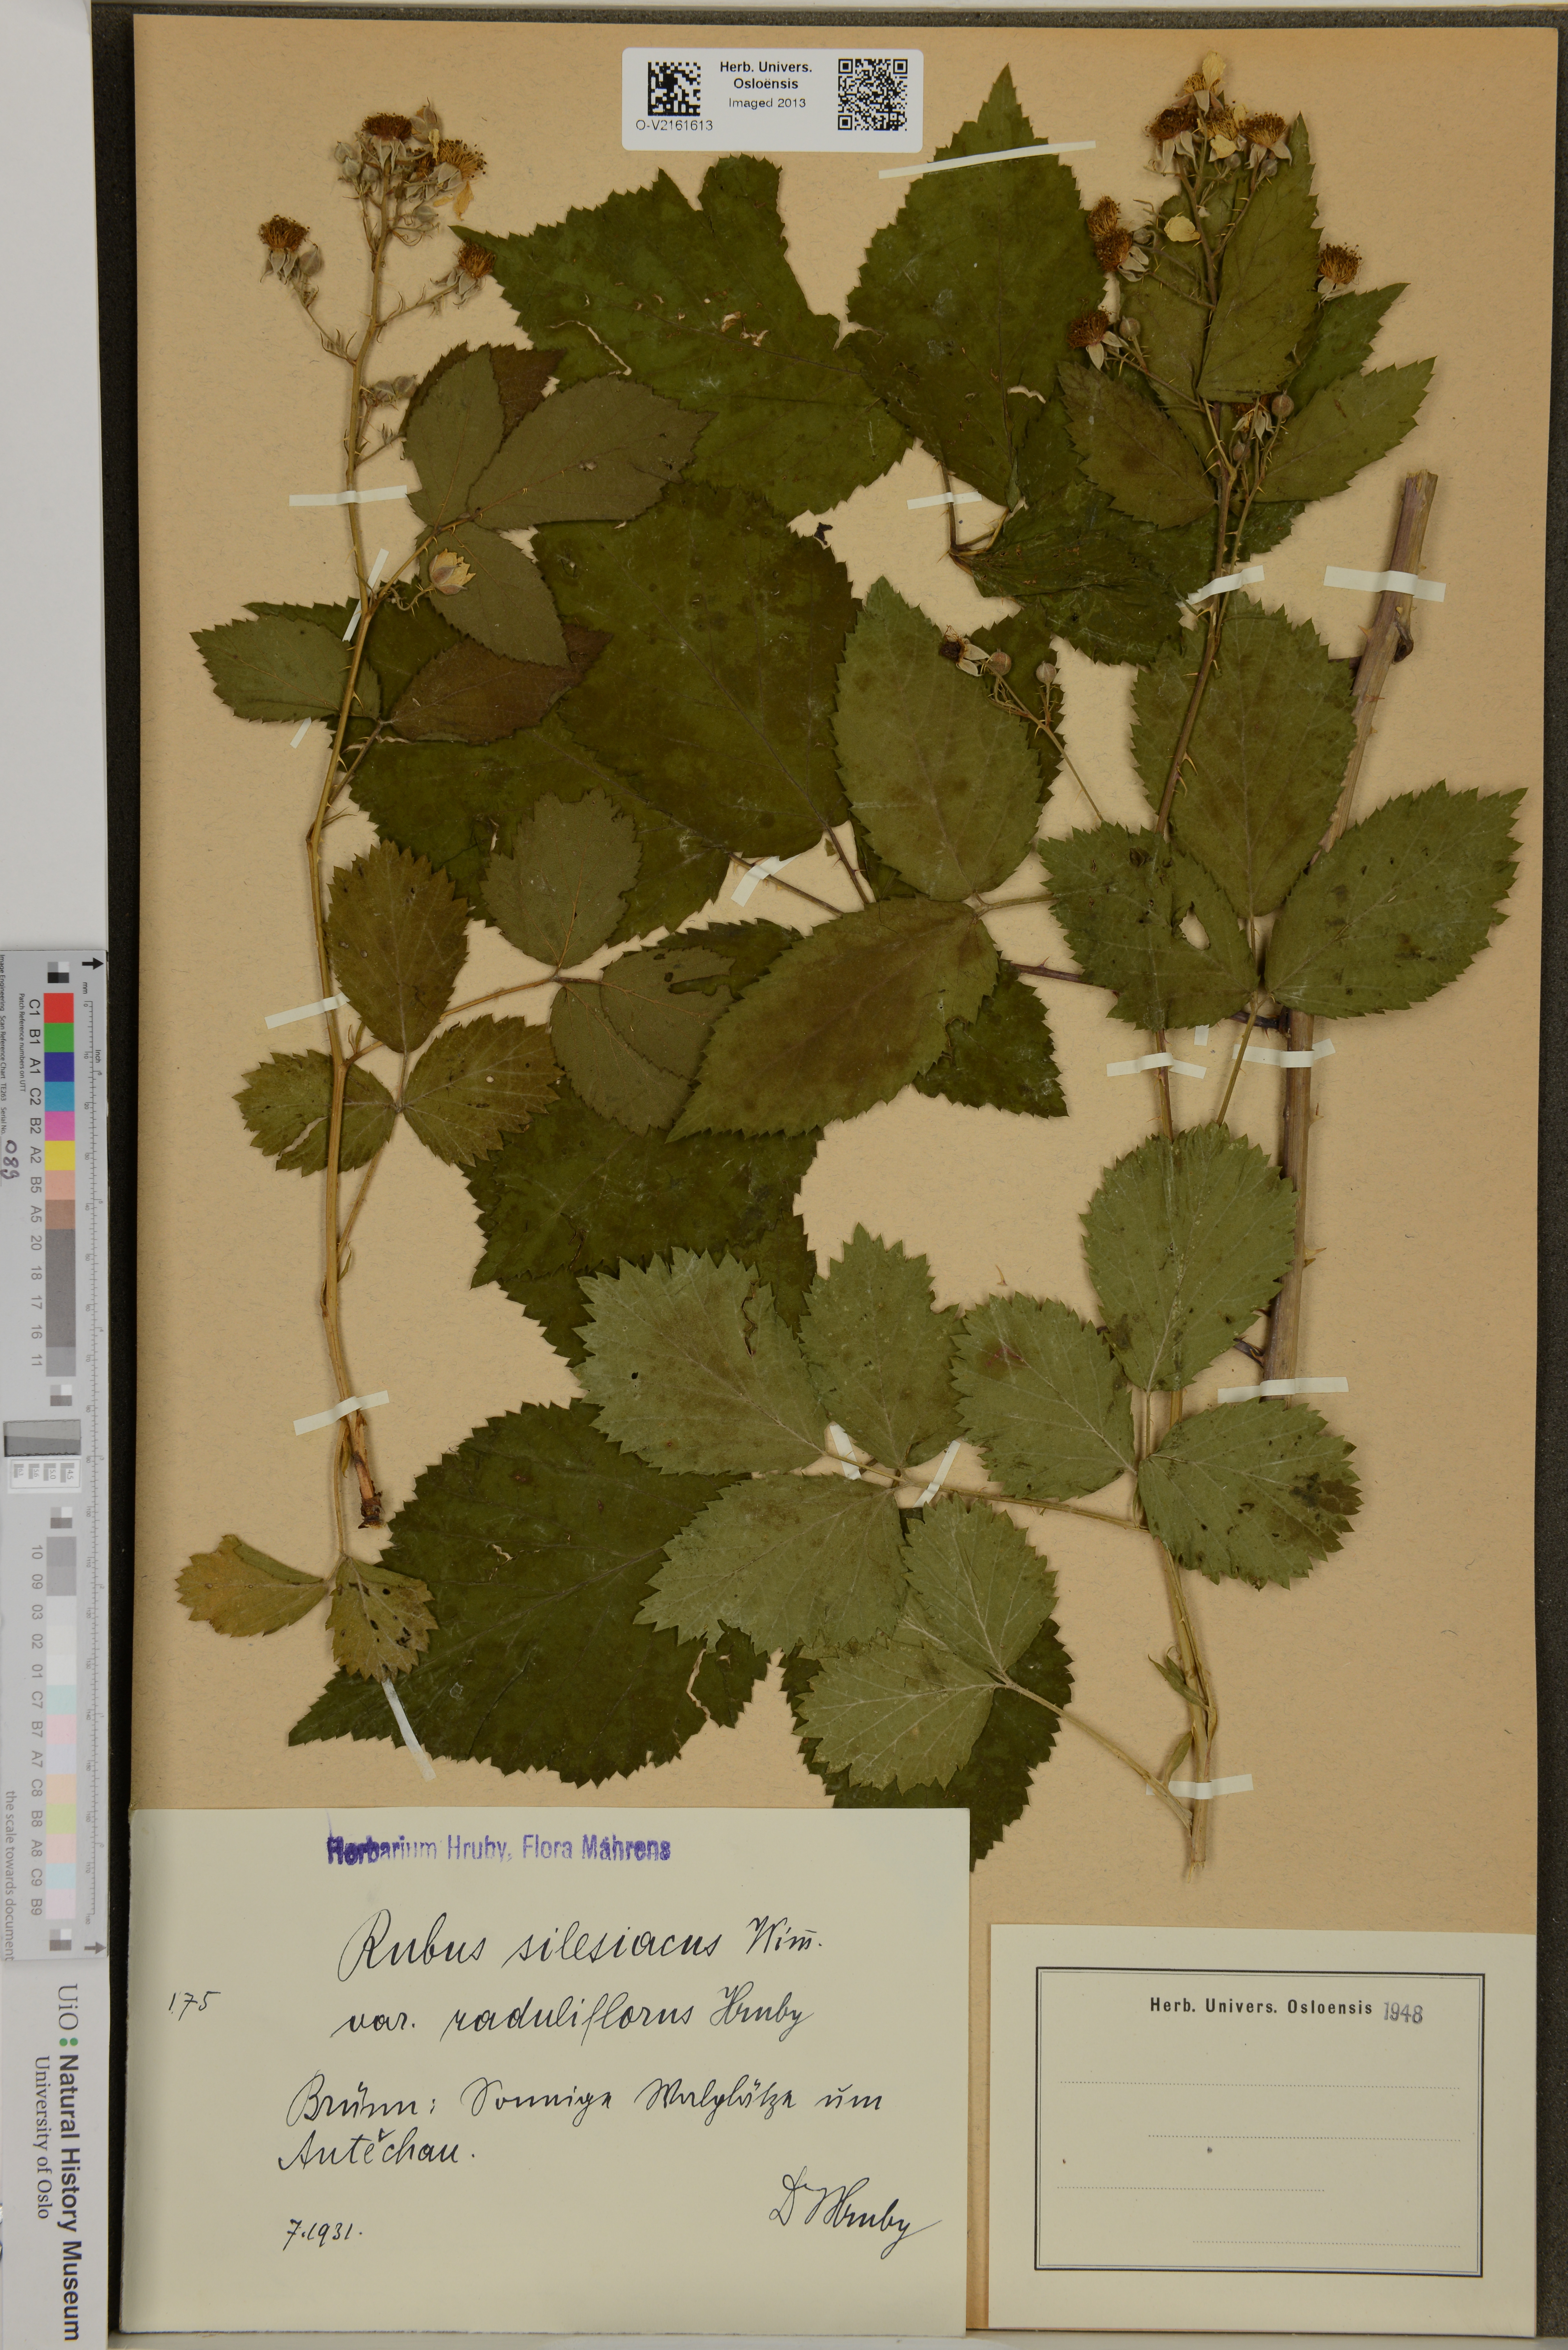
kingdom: Plantae
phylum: Tracheophyta
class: Magnoliopsida
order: Rosales
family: Rosaceae
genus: Rubus
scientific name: Rubus silesiacus
